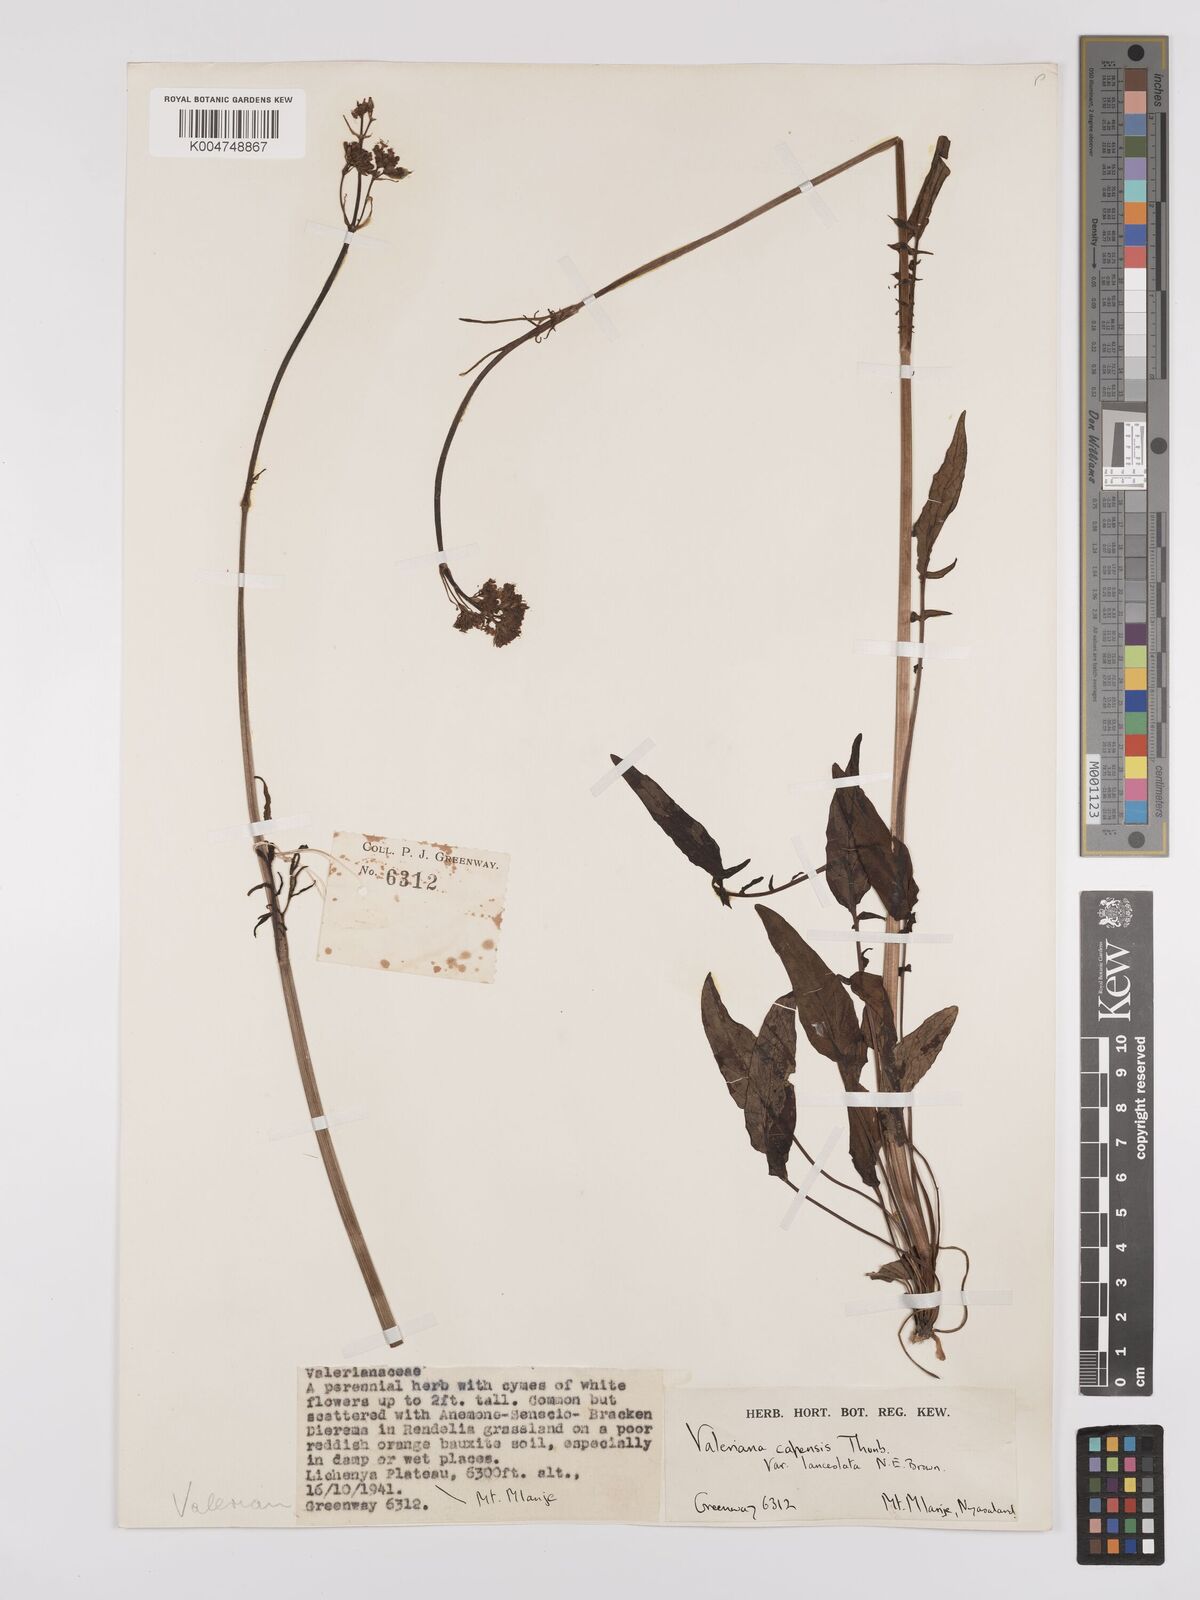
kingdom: Plantae
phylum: Tracheophyta
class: Magnoliopsida
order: Dipsacales
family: Caprifoliaceae
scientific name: Caprifoliaceae
